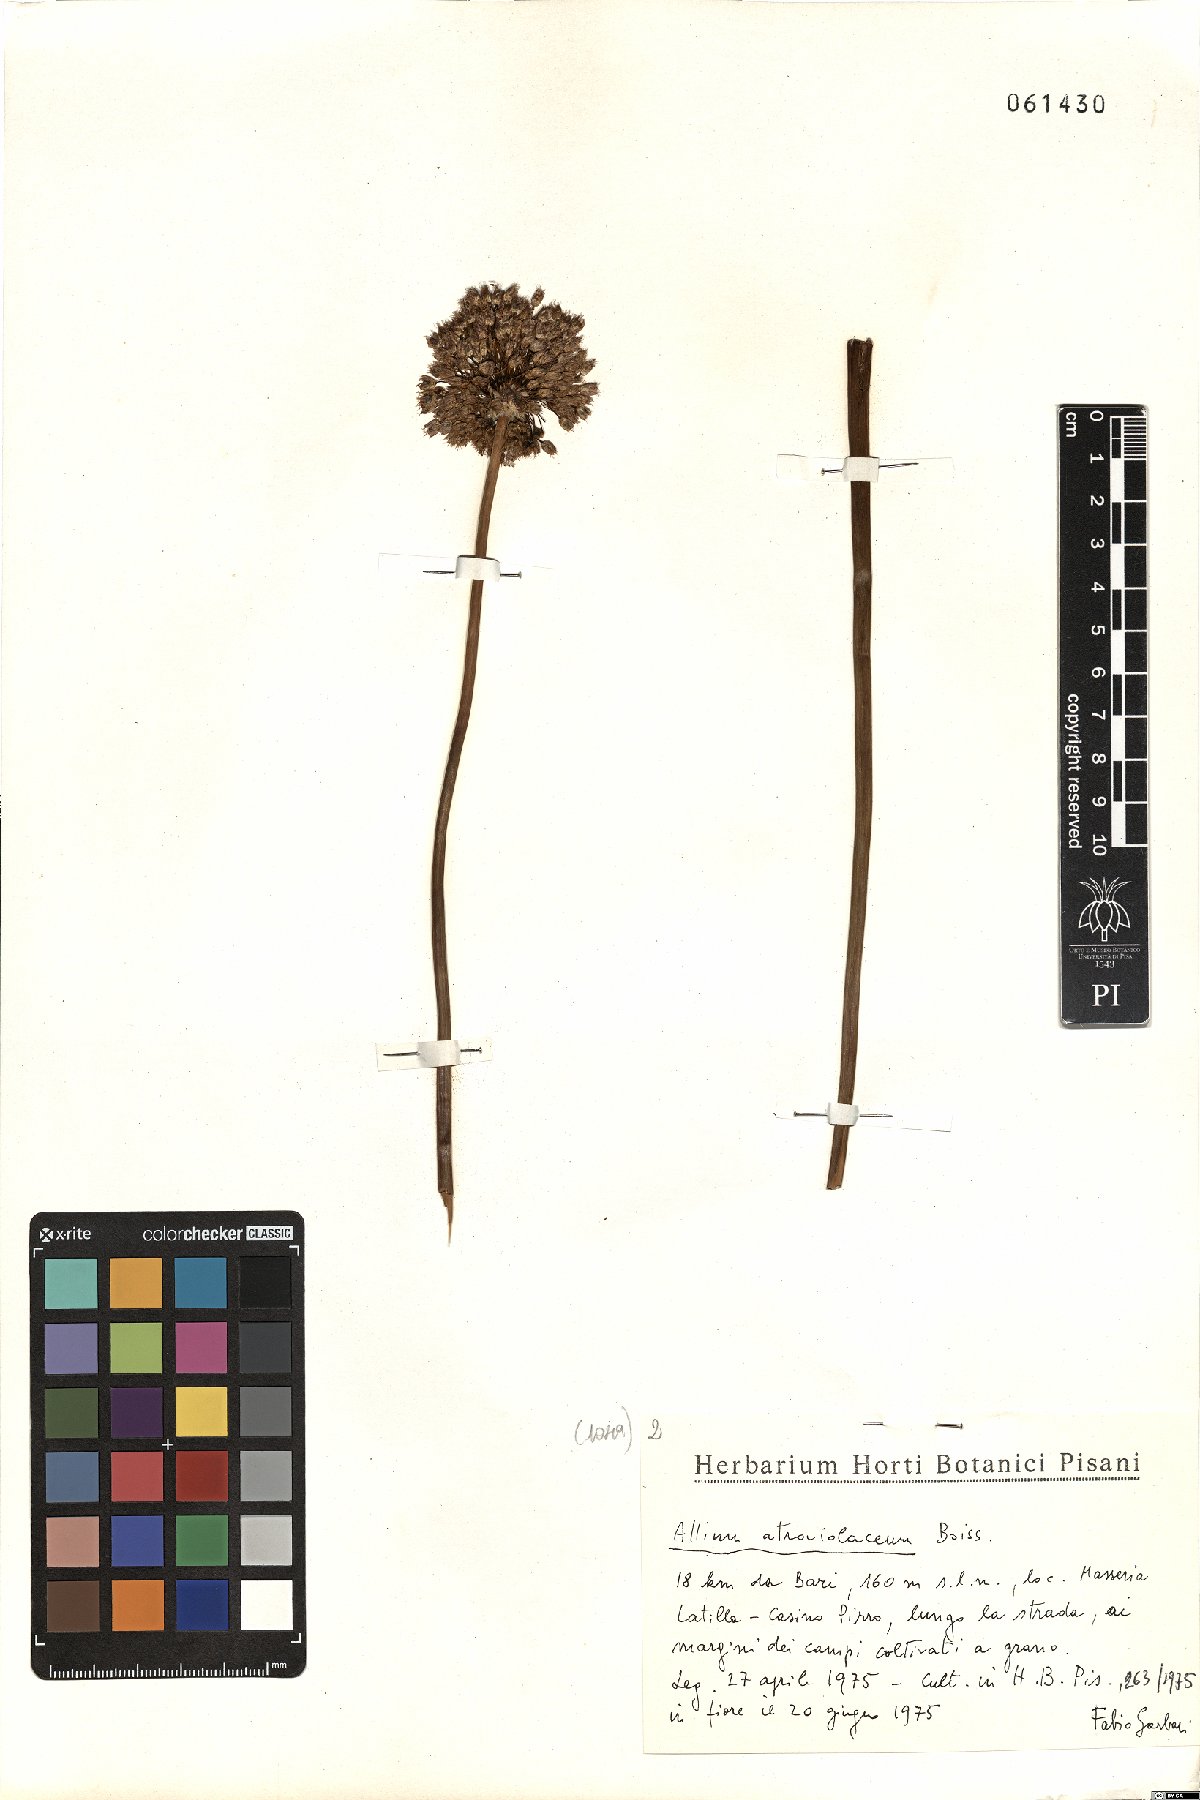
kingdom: Plantae
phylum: Tracheophyta
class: Liliopsida
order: Asparagales
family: Amaryllidaceae
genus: Allium
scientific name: Allium atroviolaceum
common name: Broadleaf wild leek
